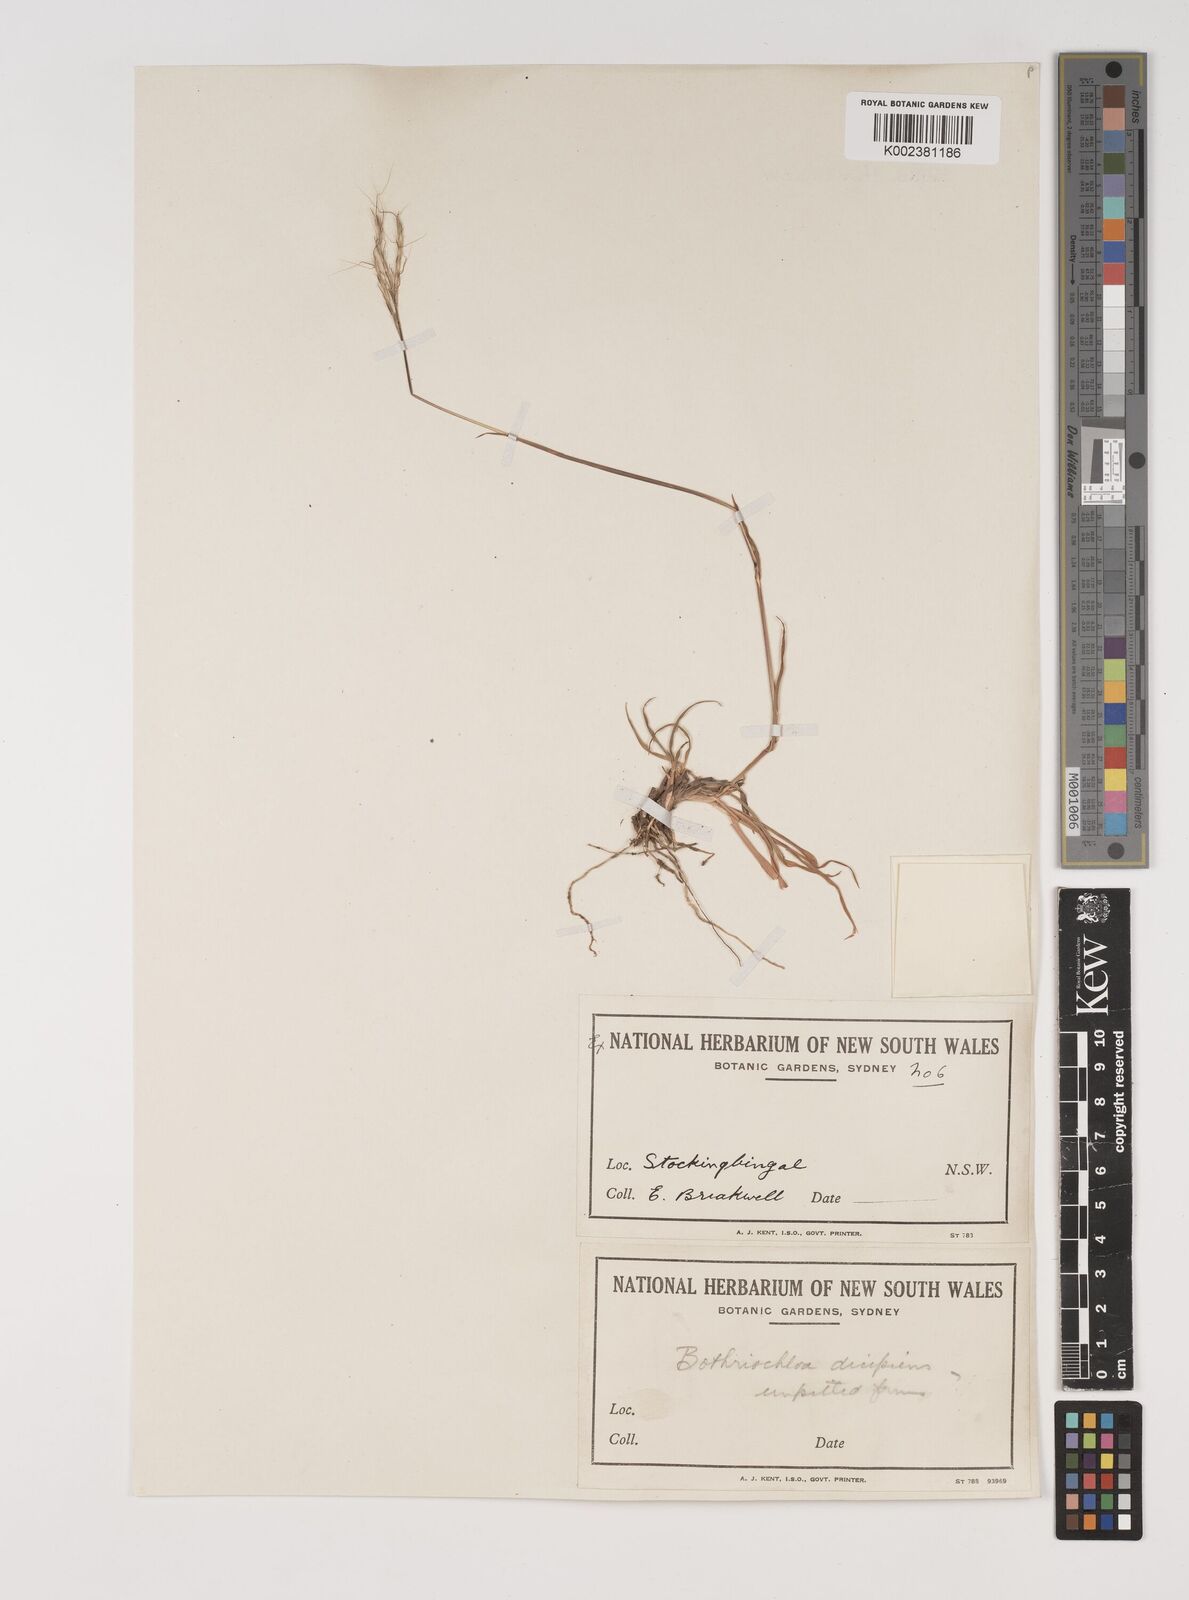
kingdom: Plantae
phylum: Tracheophyta
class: Liliopsida
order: Poales
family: Poaceae
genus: Bothriochloa
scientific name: Bothriochloa macra
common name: Pitted beard grass
